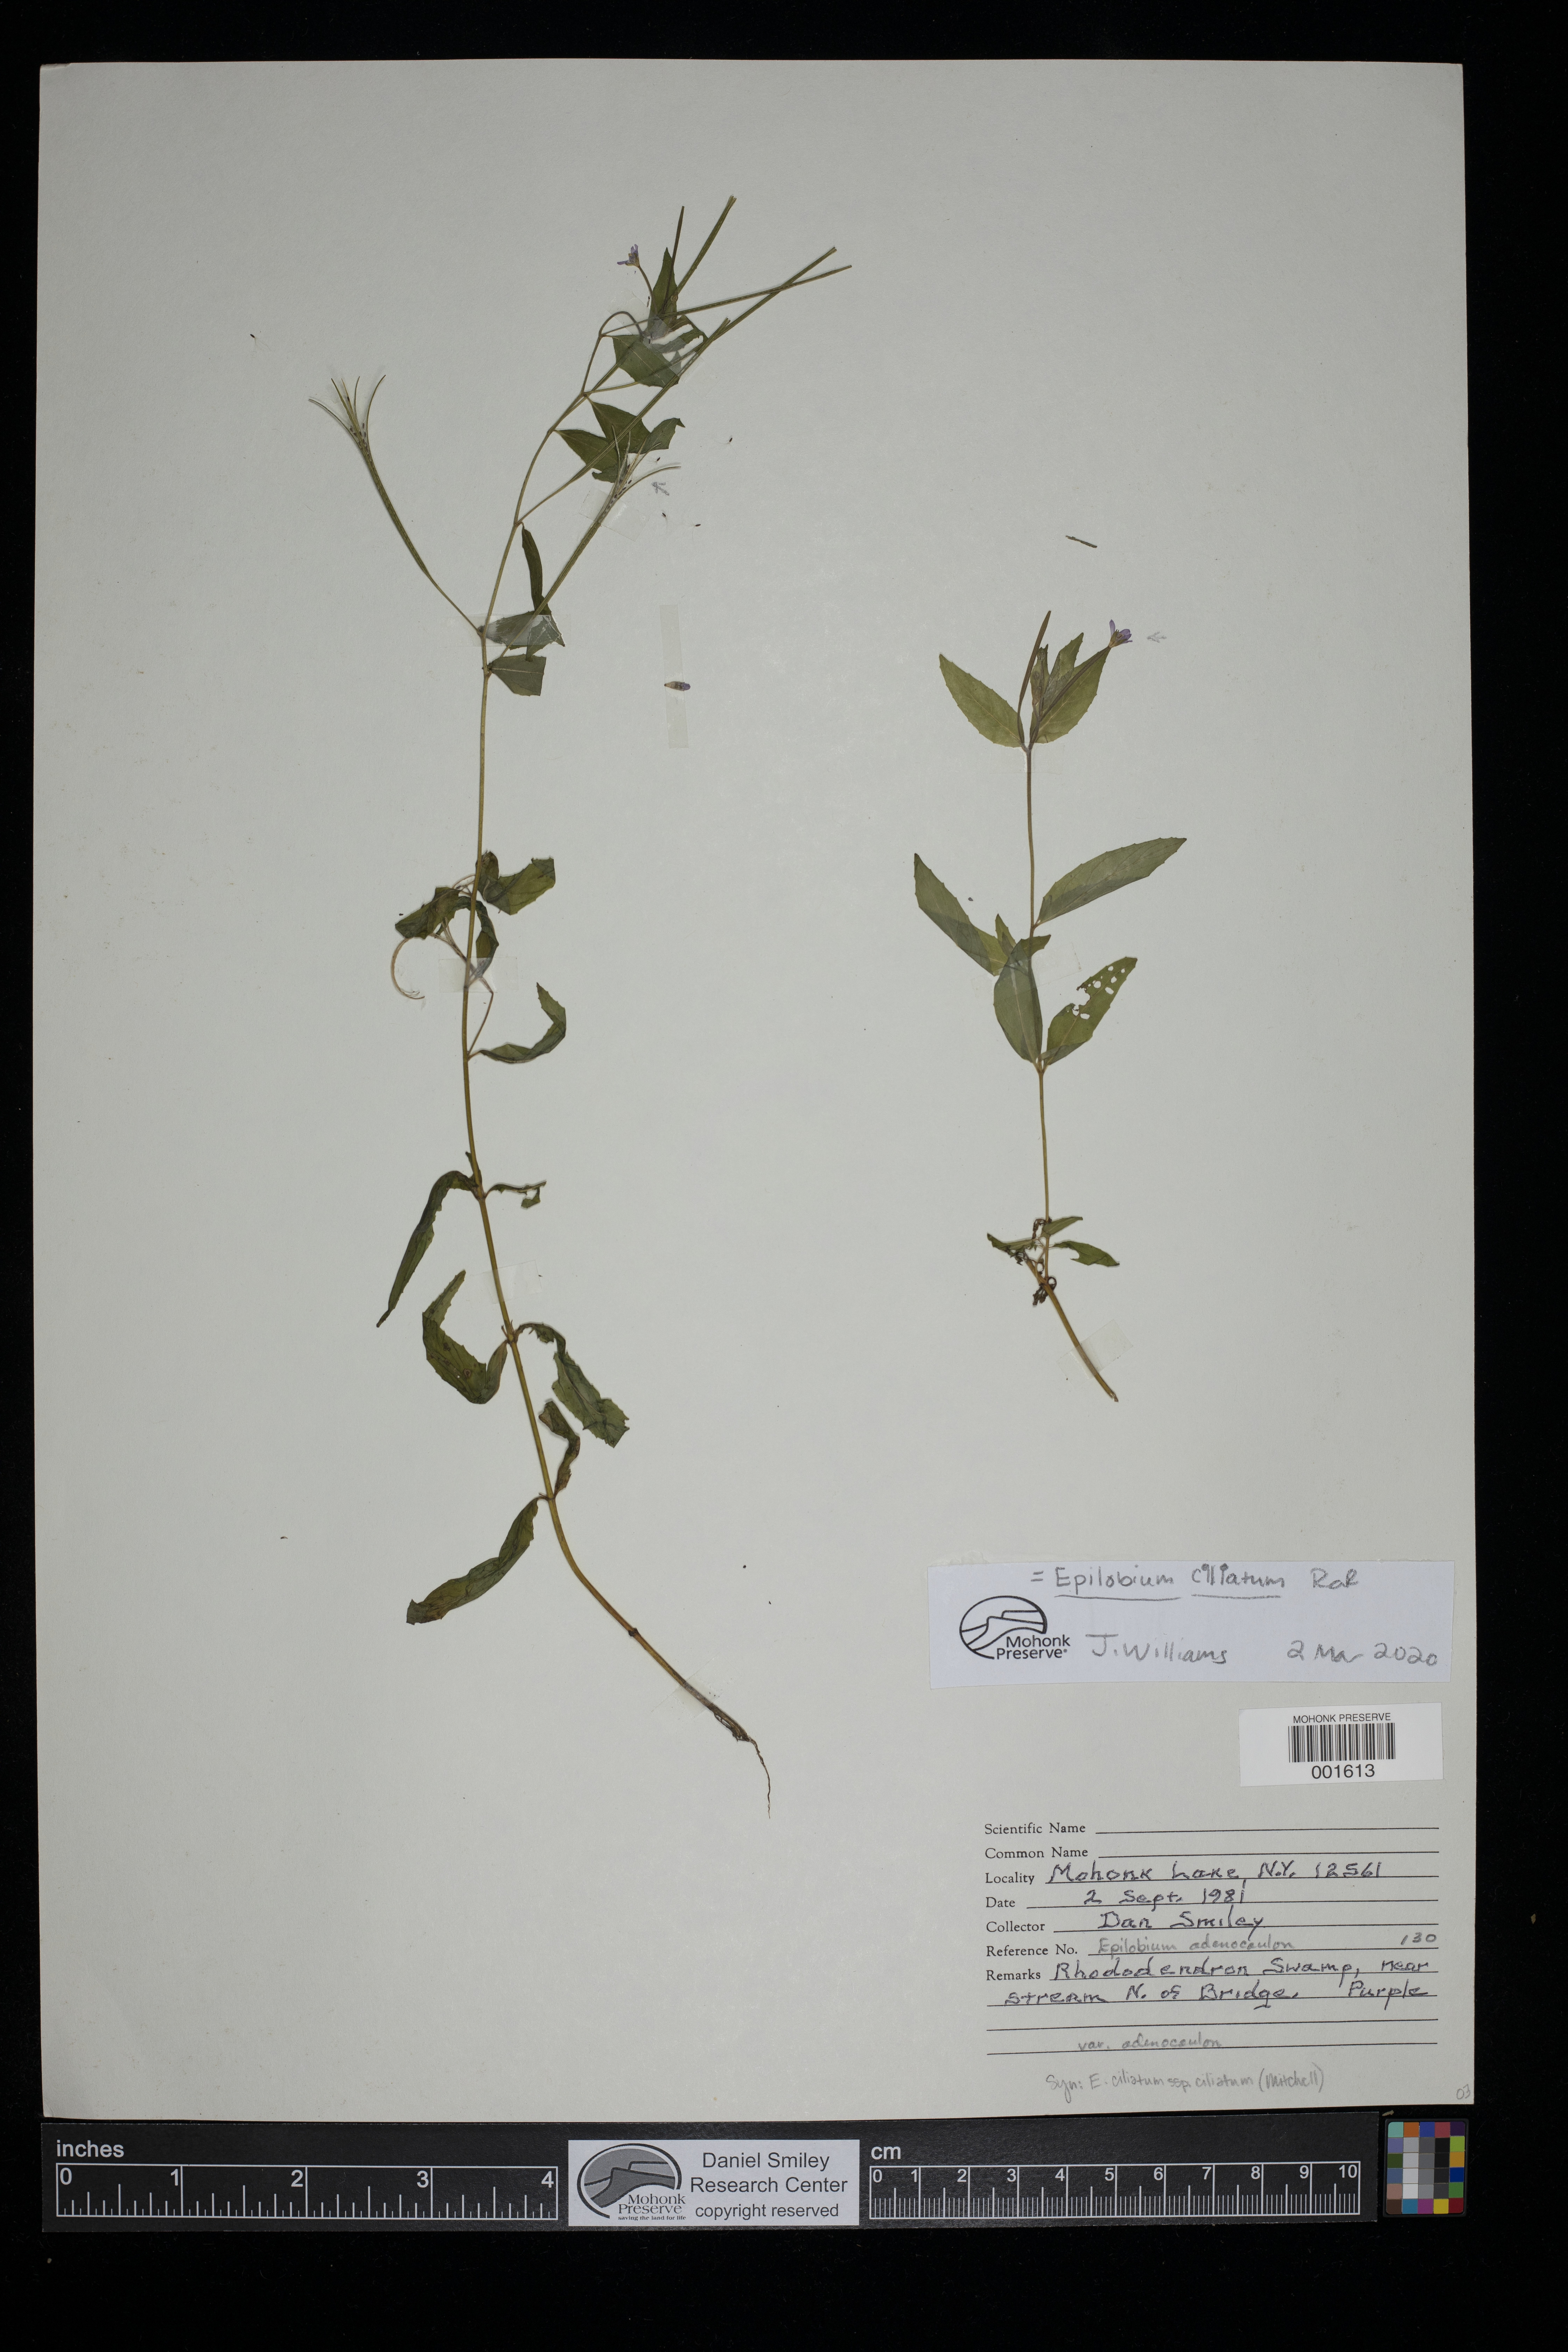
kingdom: Plantae
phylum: Tracheophyta
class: Magnoliopsida
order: Myrtales
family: Onagraceae
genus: Epilobium
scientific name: Epilobium ciliatum
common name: American willowherb
